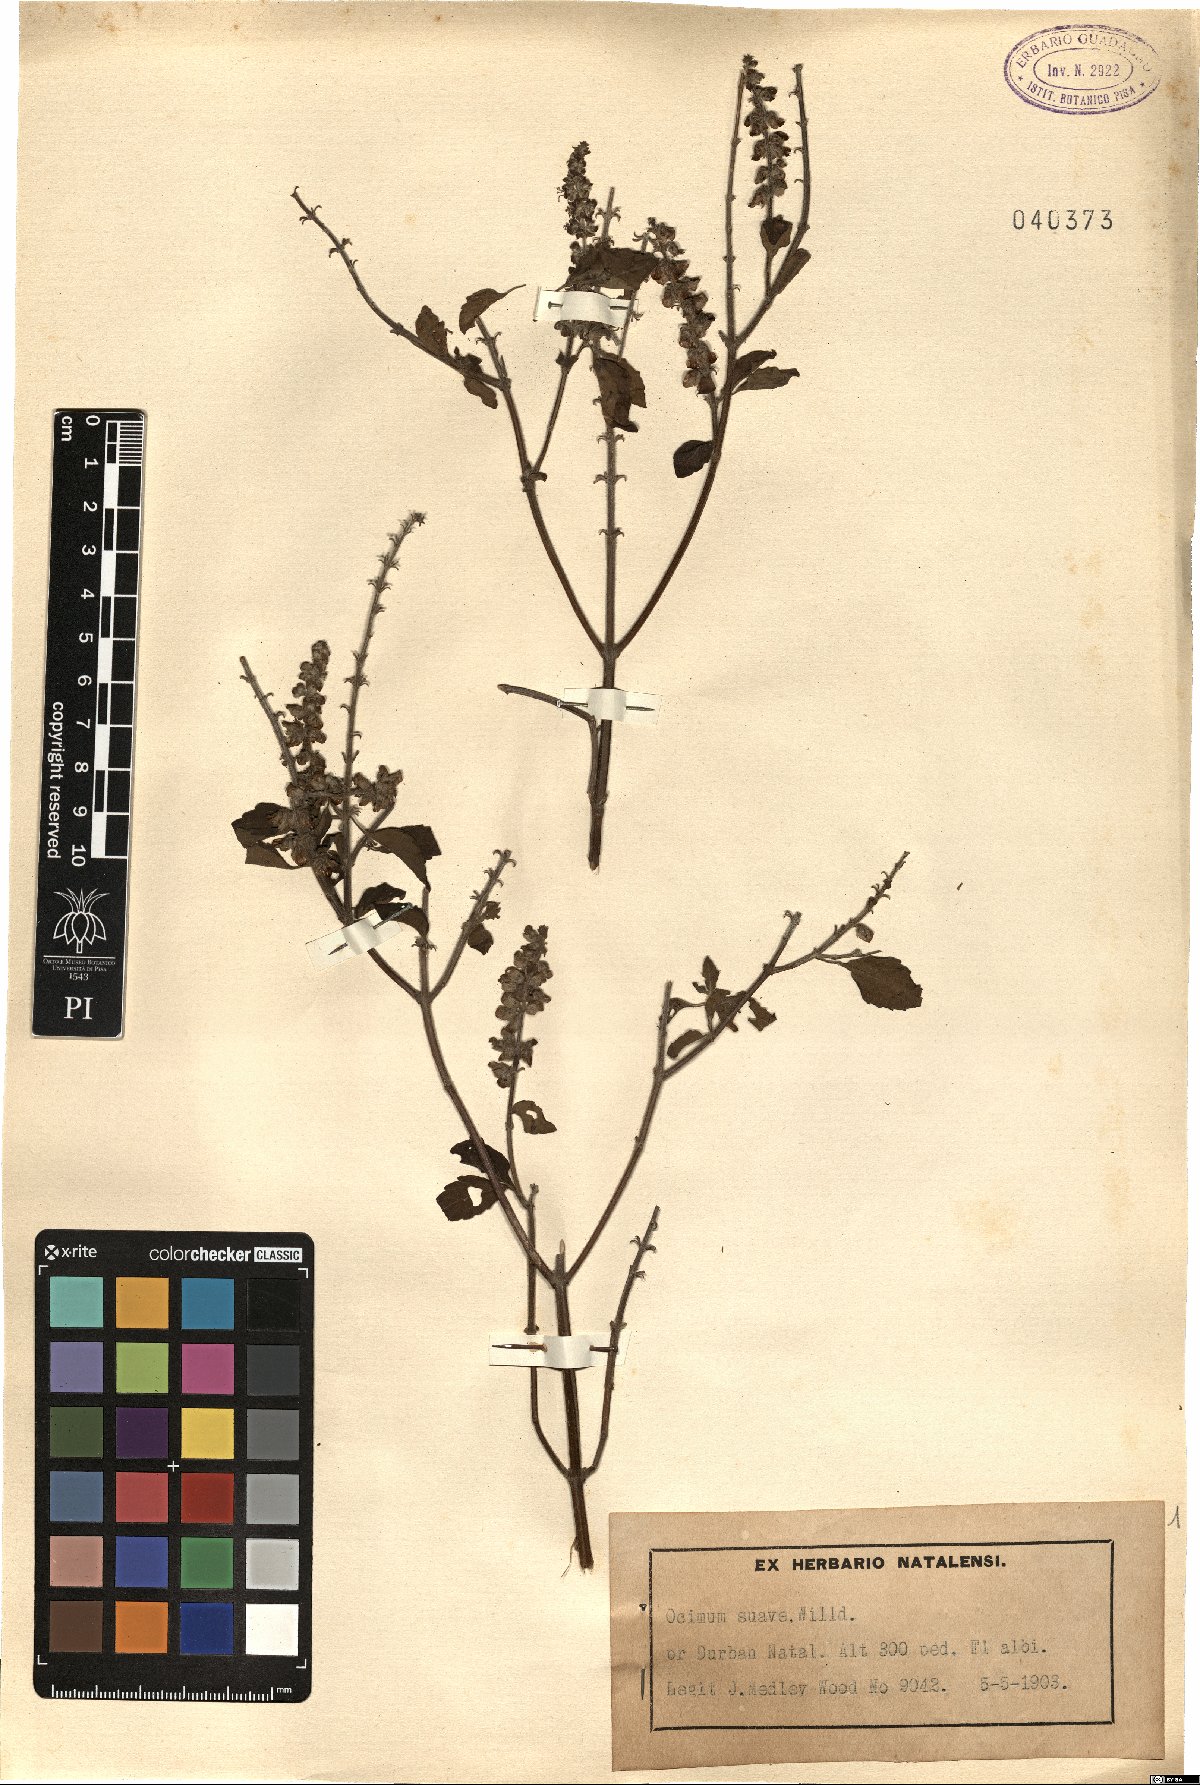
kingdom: Plantae
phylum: Tracheophyta
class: Magnoliopsida
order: Lamiales
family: Lamiaceae
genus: Ocimum
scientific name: Ocimum gratissimum
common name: African basil
